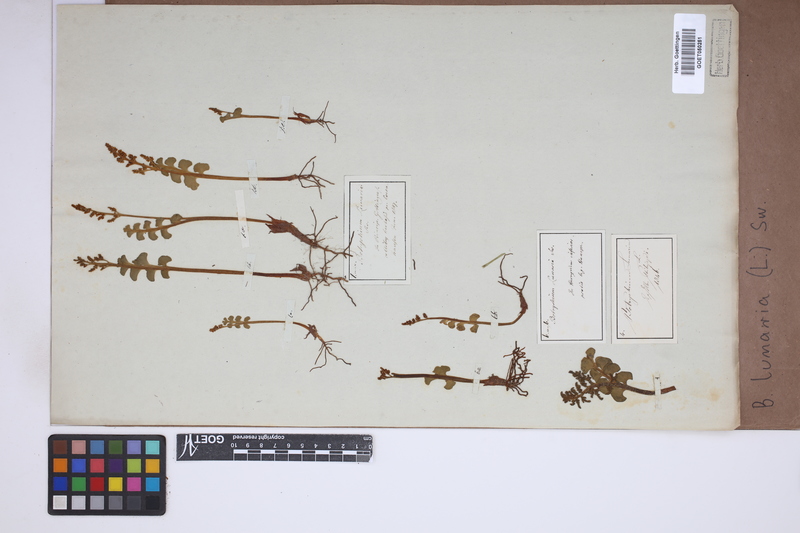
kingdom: Plantae
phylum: Tracheophyta
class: Polypodiopsida
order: Ophioglossales
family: Ophioglossaceae
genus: Botrychium
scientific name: Botrychium lunaria
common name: Moonwort
